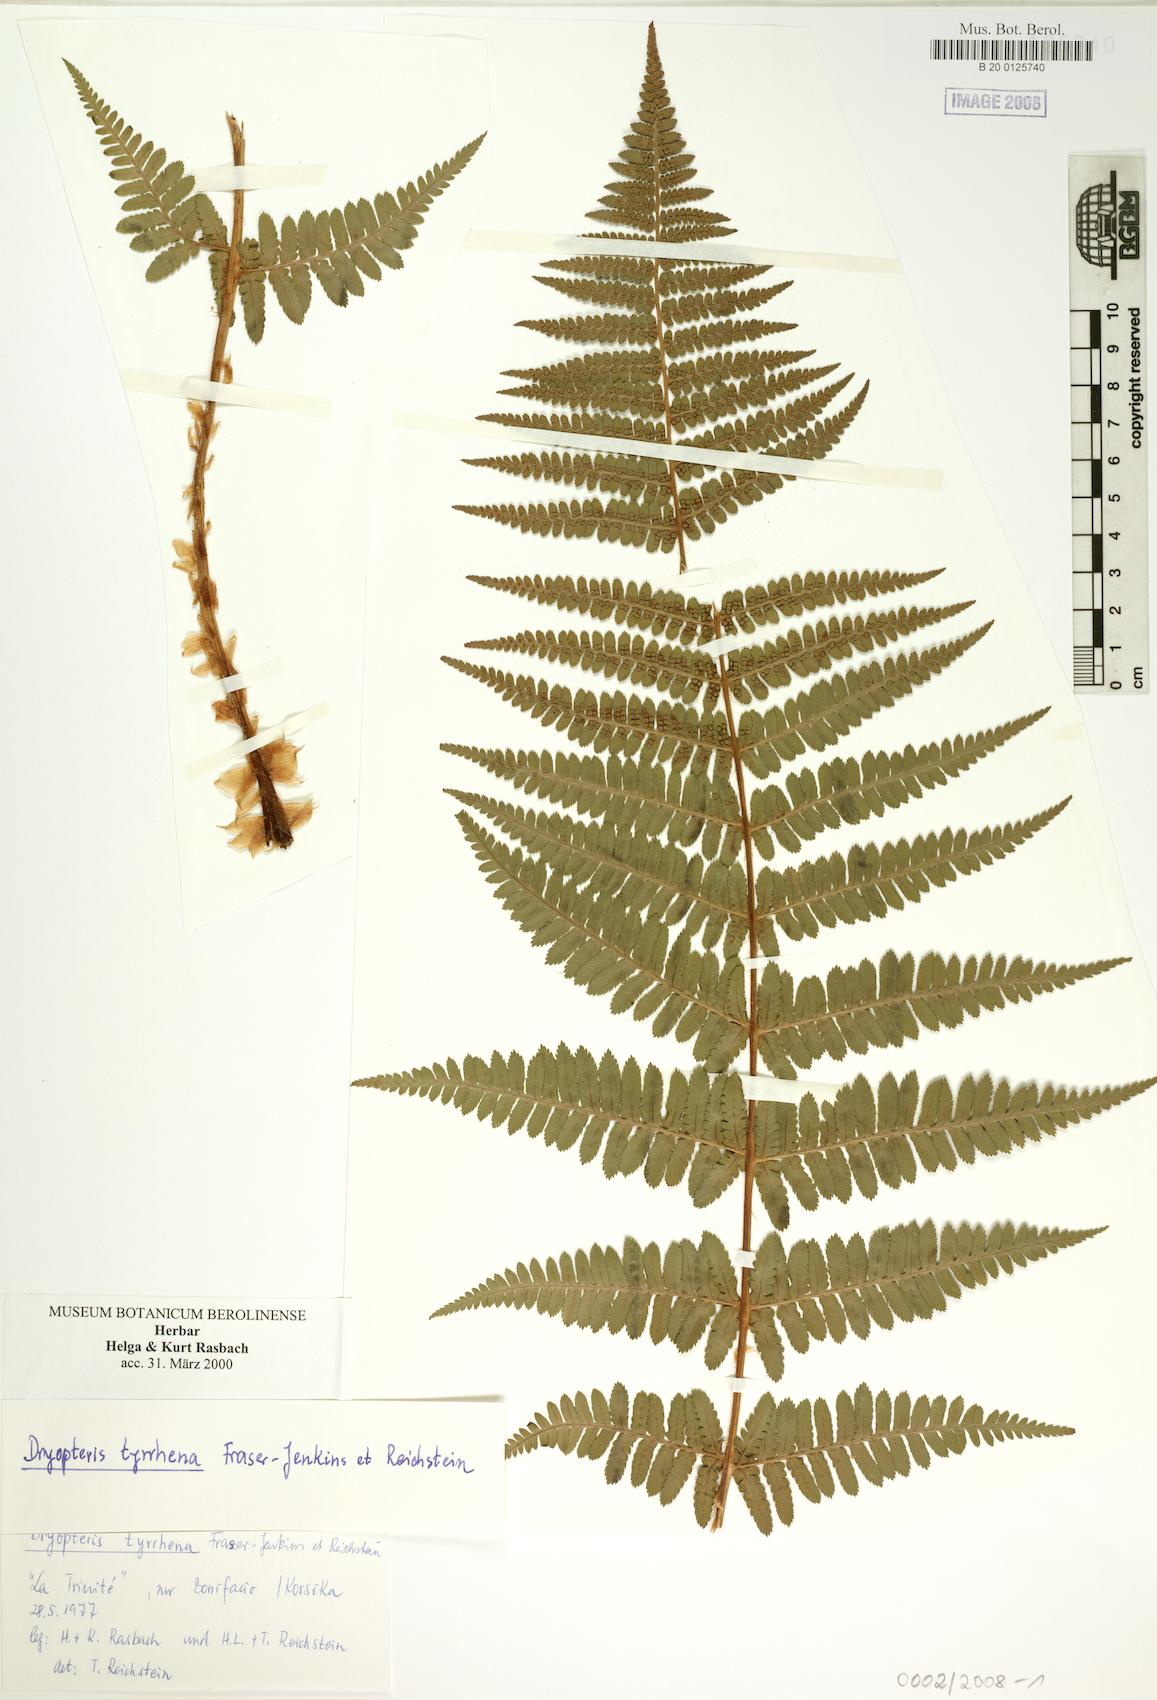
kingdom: Plantae
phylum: Tracheophyta
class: Polypodiopsida
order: Polypodiales
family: Dryopteridaceae
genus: Dryopteris
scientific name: Dryopteris tyrrhena
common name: Mediterranean buckler-fern
